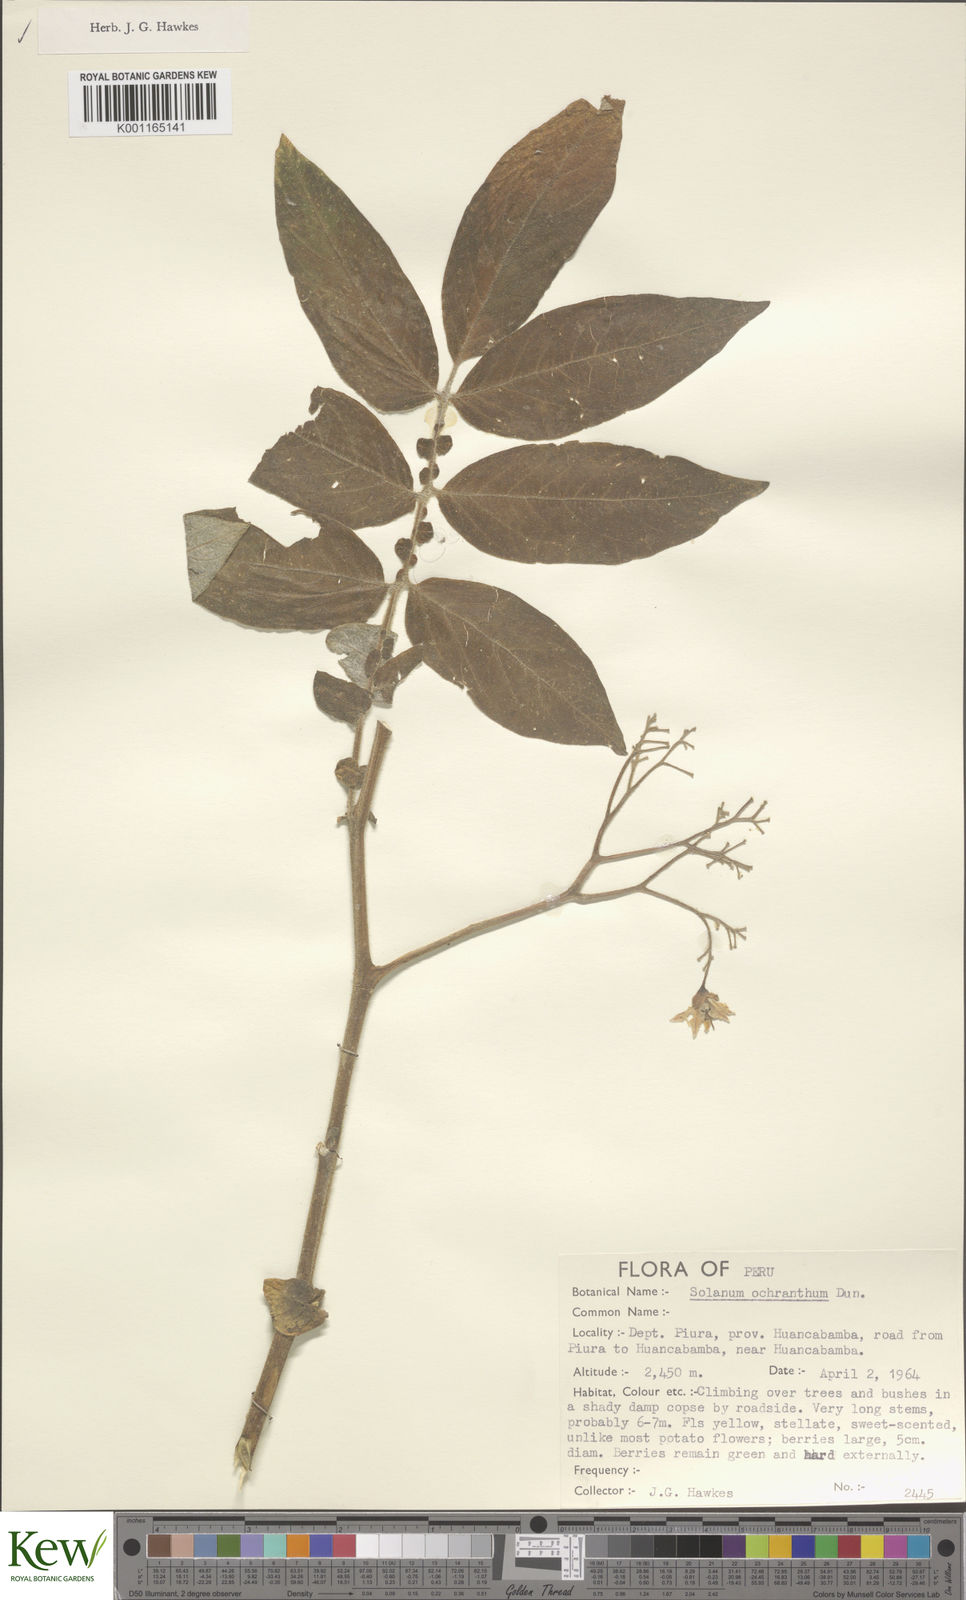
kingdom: Plantae
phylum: Tracheophyta
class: Magnoliopsida
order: Solanales
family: Solanaceae
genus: Solanum
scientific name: Solanum ochranthum
